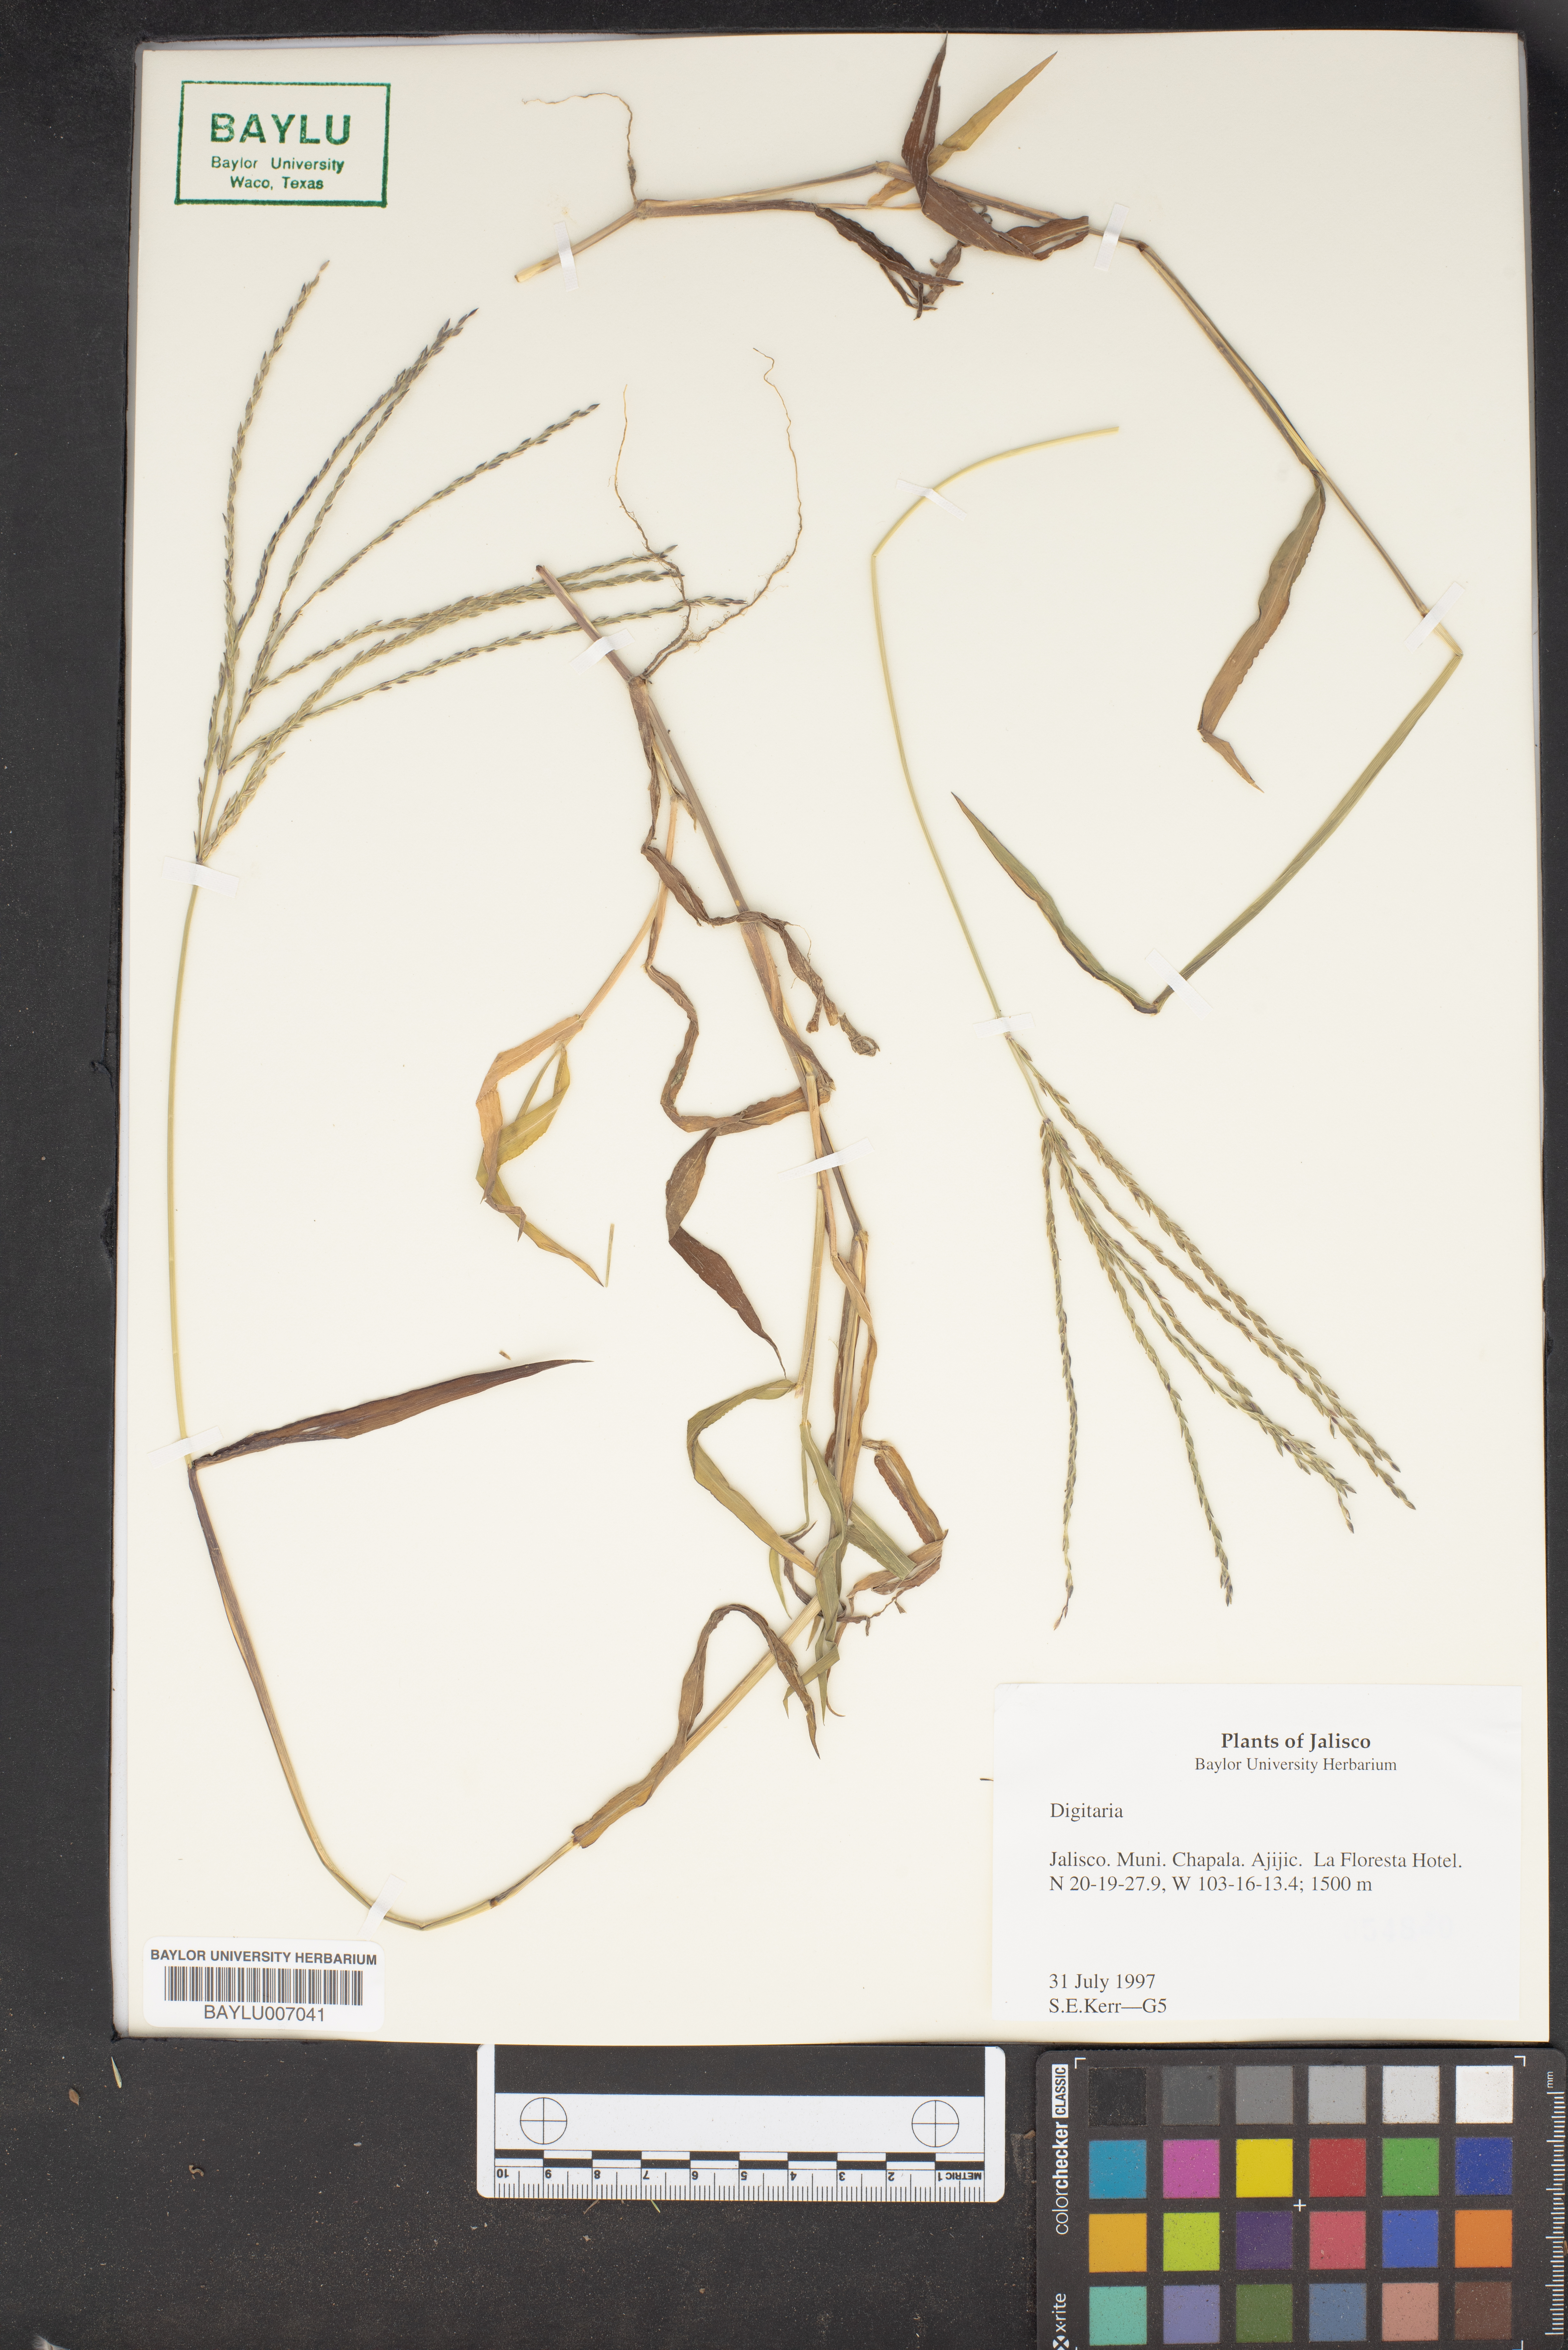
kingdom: Plantae
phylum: Tracheophyta
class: Liliopsida
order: Poales
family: Poaceae
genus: Digitaria
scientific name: Digitaria
